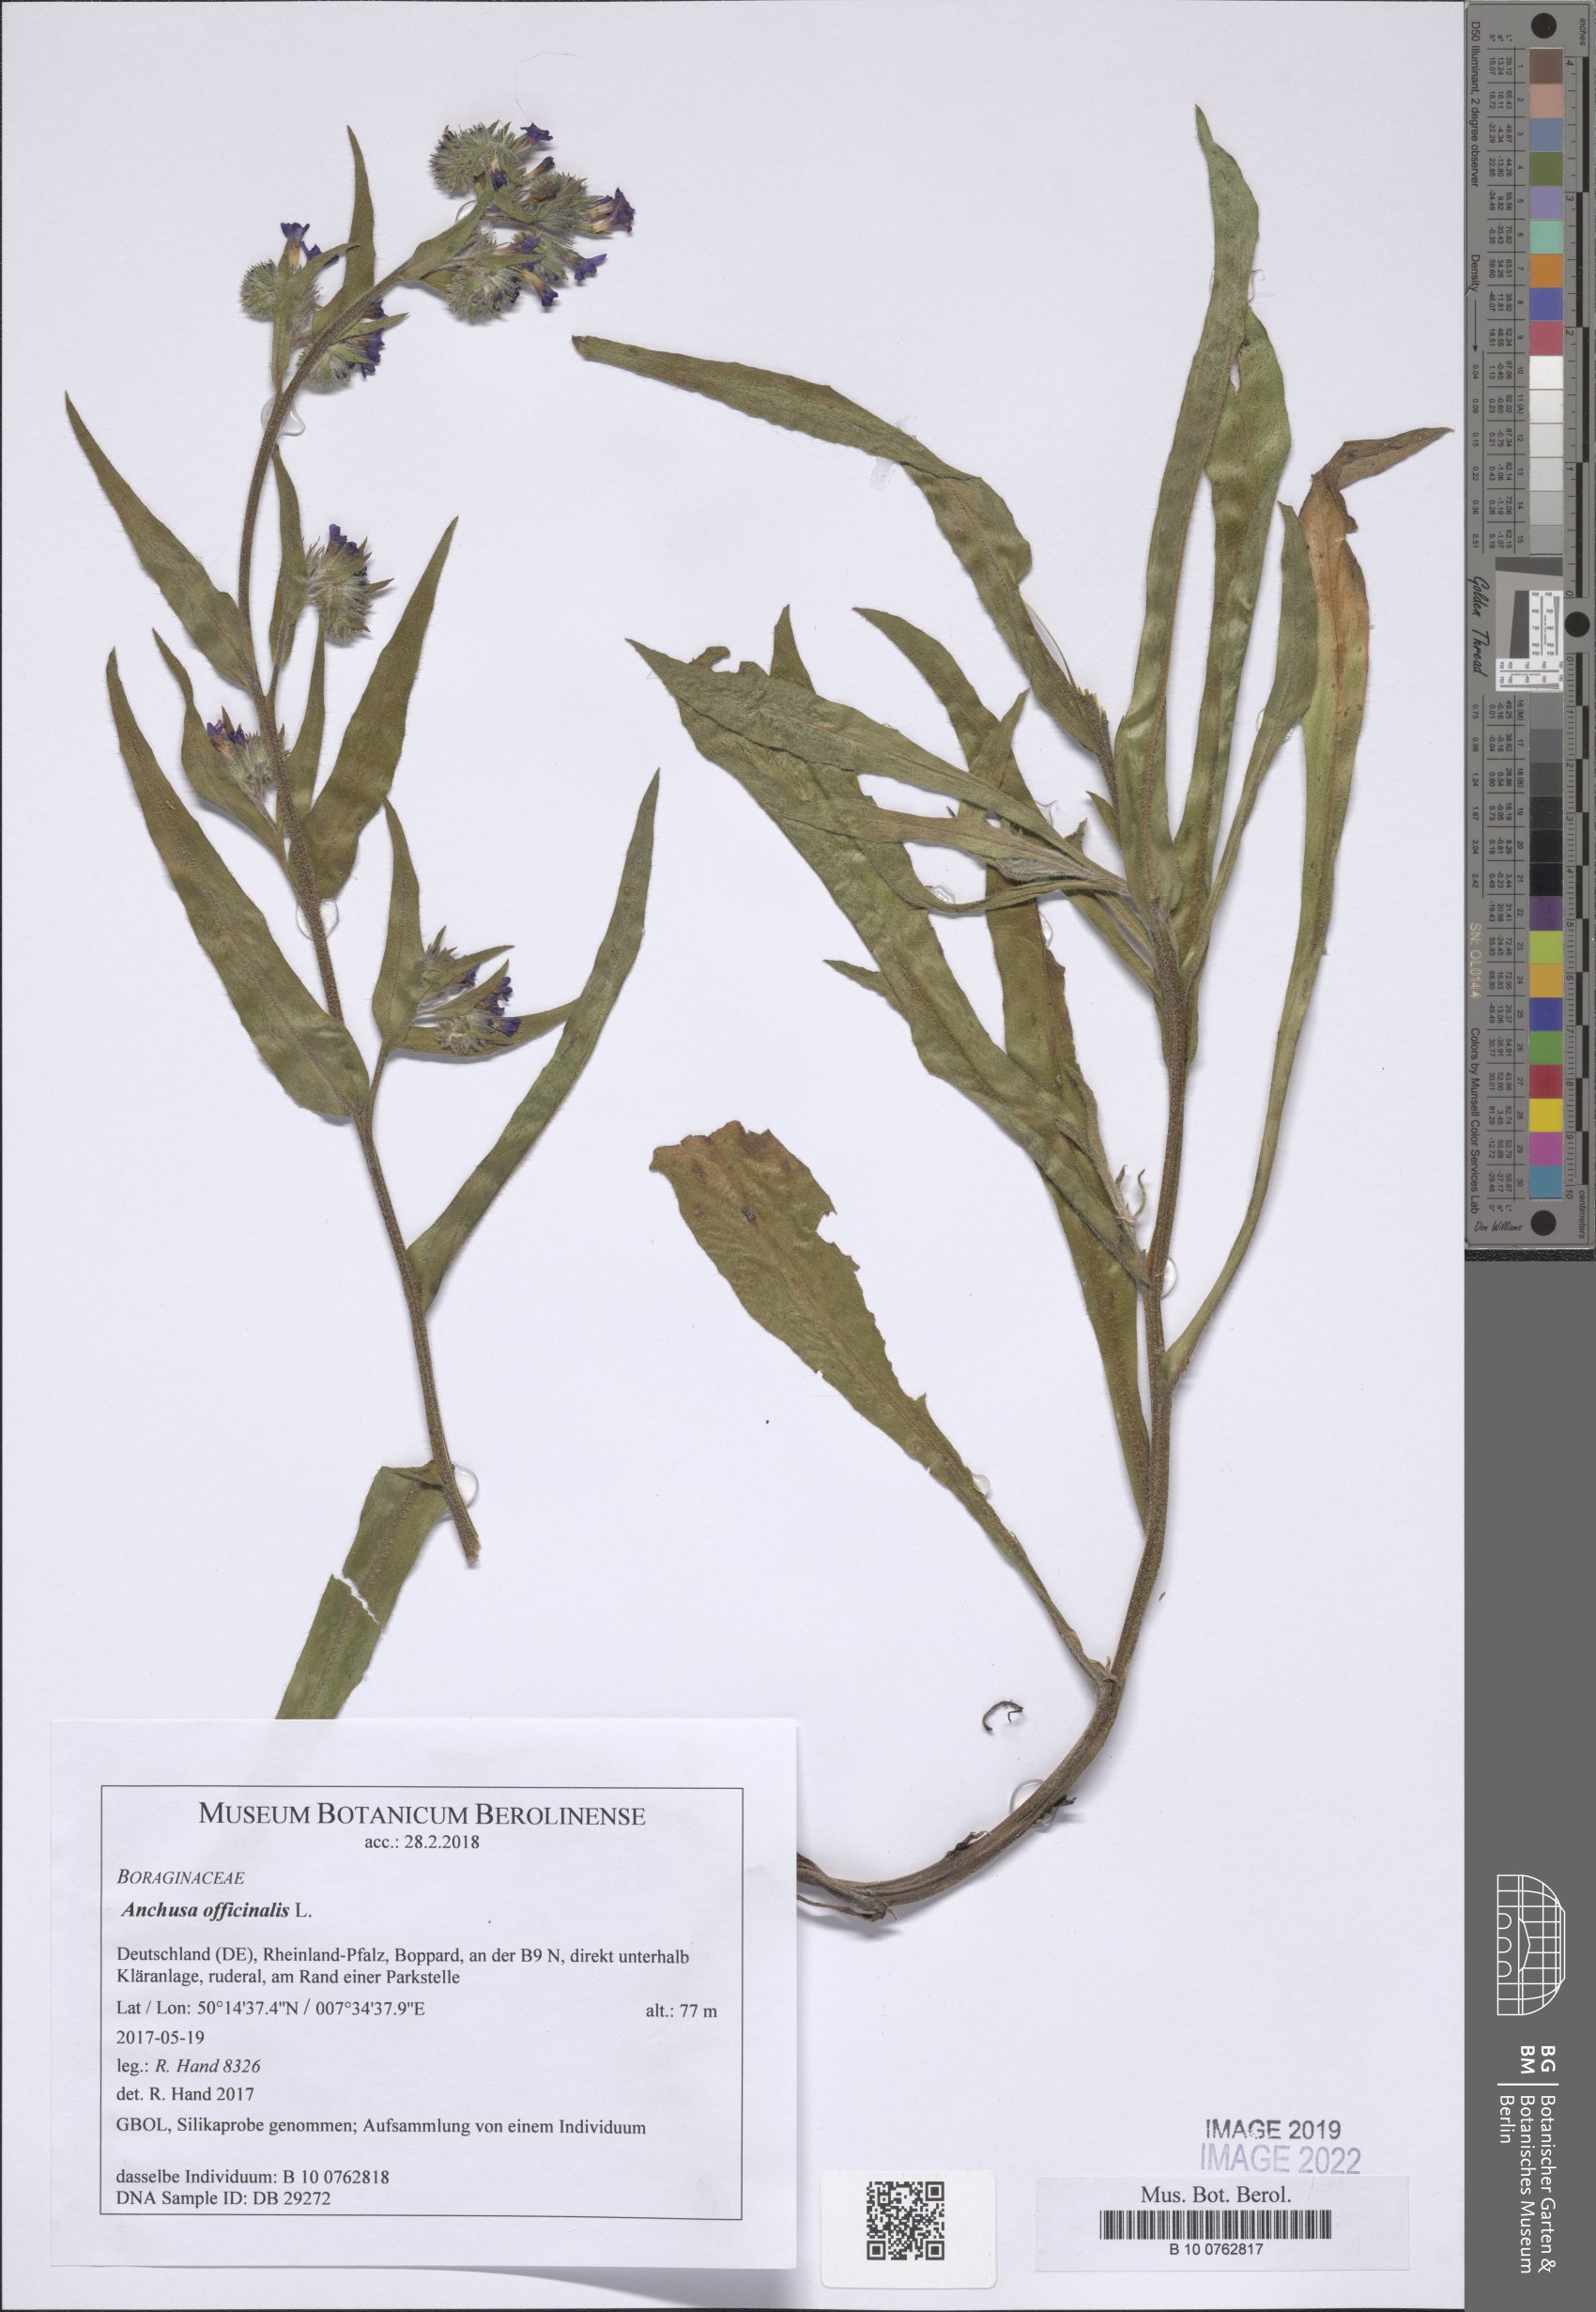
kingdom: Plantae
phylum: Tracheophyta
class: Magnoliopsida
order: Boraginales
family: Boraginaceae
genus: Anchusa
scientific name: Anchusa officinalis
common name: Alkanet
